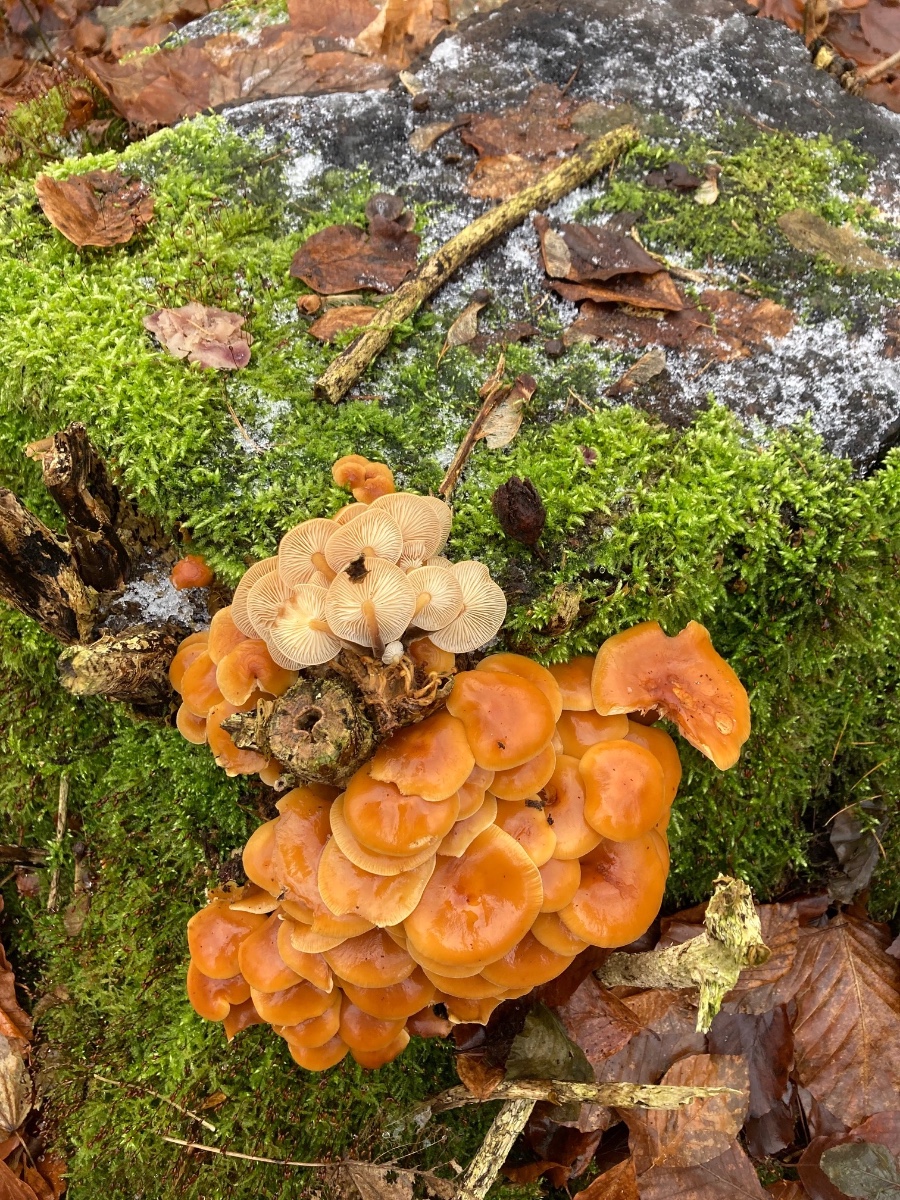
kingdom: Fungi
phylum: Basidiomycota
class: Agaricomycetes
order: Agaricales
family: Physalacriaceae
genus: Flammulina
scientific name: Flammulina velutipes
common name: gul fløjlsfod
